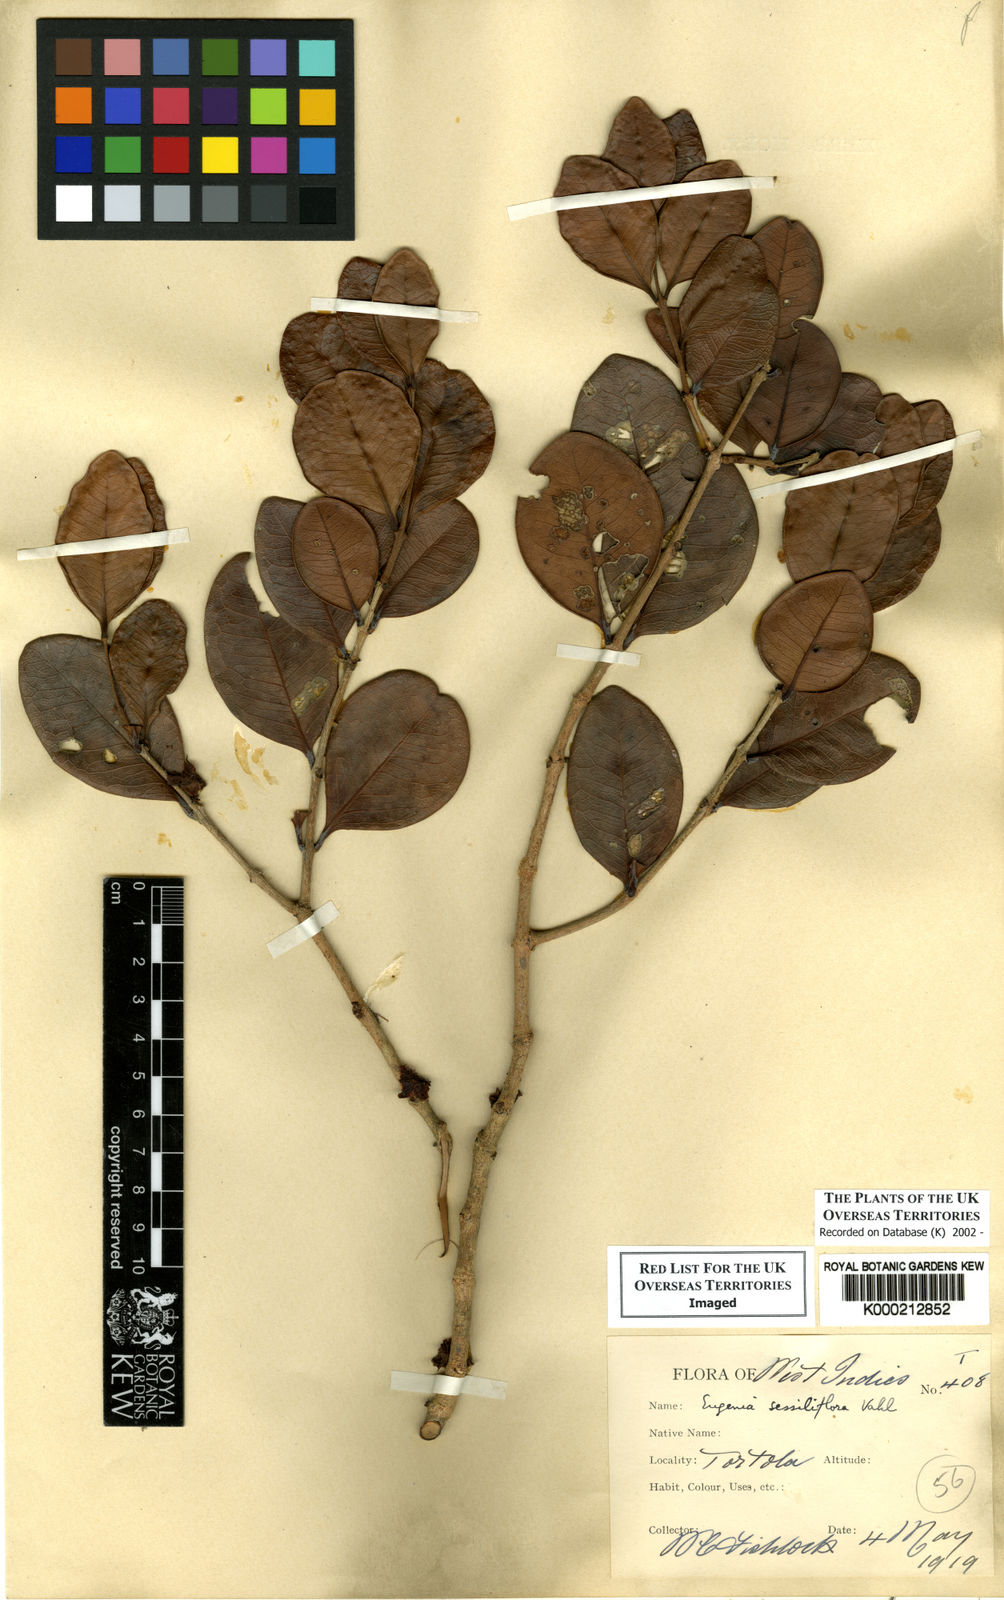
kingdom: Plantae
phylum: Tracheophyta
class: Magnoliopsida
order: Myrtales
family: Myrtaceae
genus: Eugenia
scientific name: Eugenia sessilifolia
